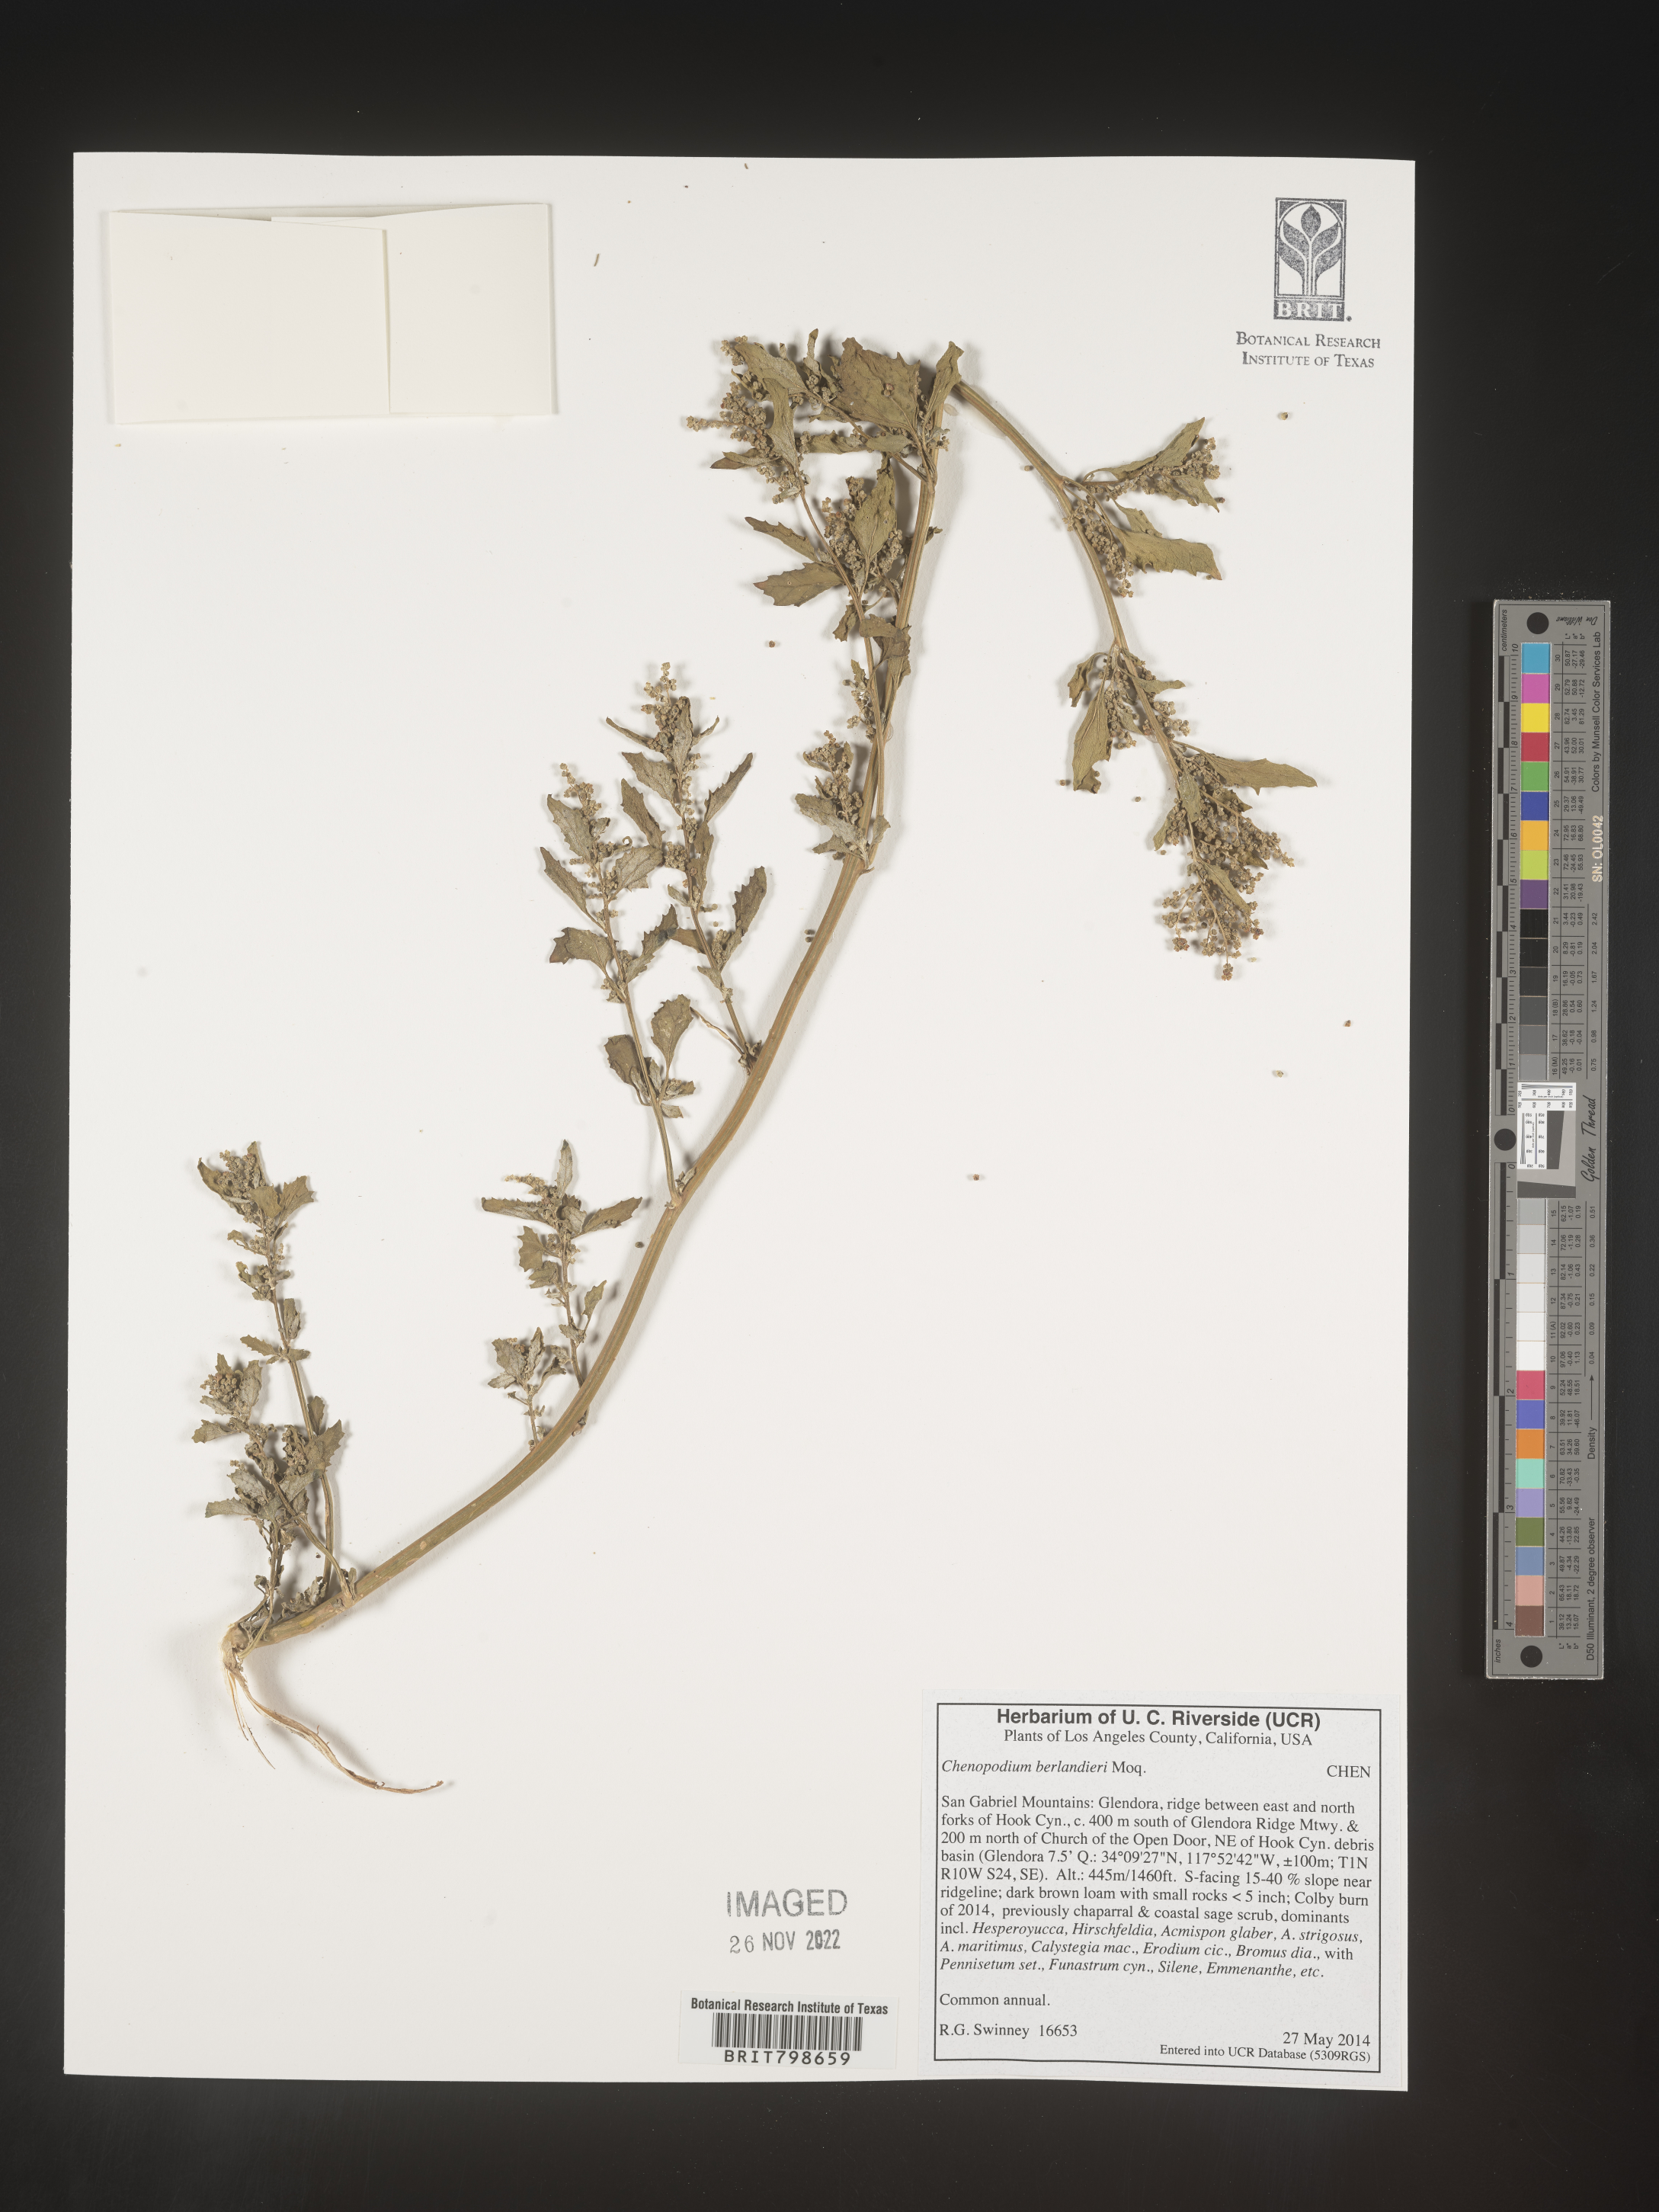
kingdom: Plantae
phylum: Tracheophyta
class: Magnoliopsida
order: Caryophyllales
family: Amaranthaceae
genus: Chenopodium
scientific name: Chenopodium berlandieri
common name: Pit-seed goosefoot
